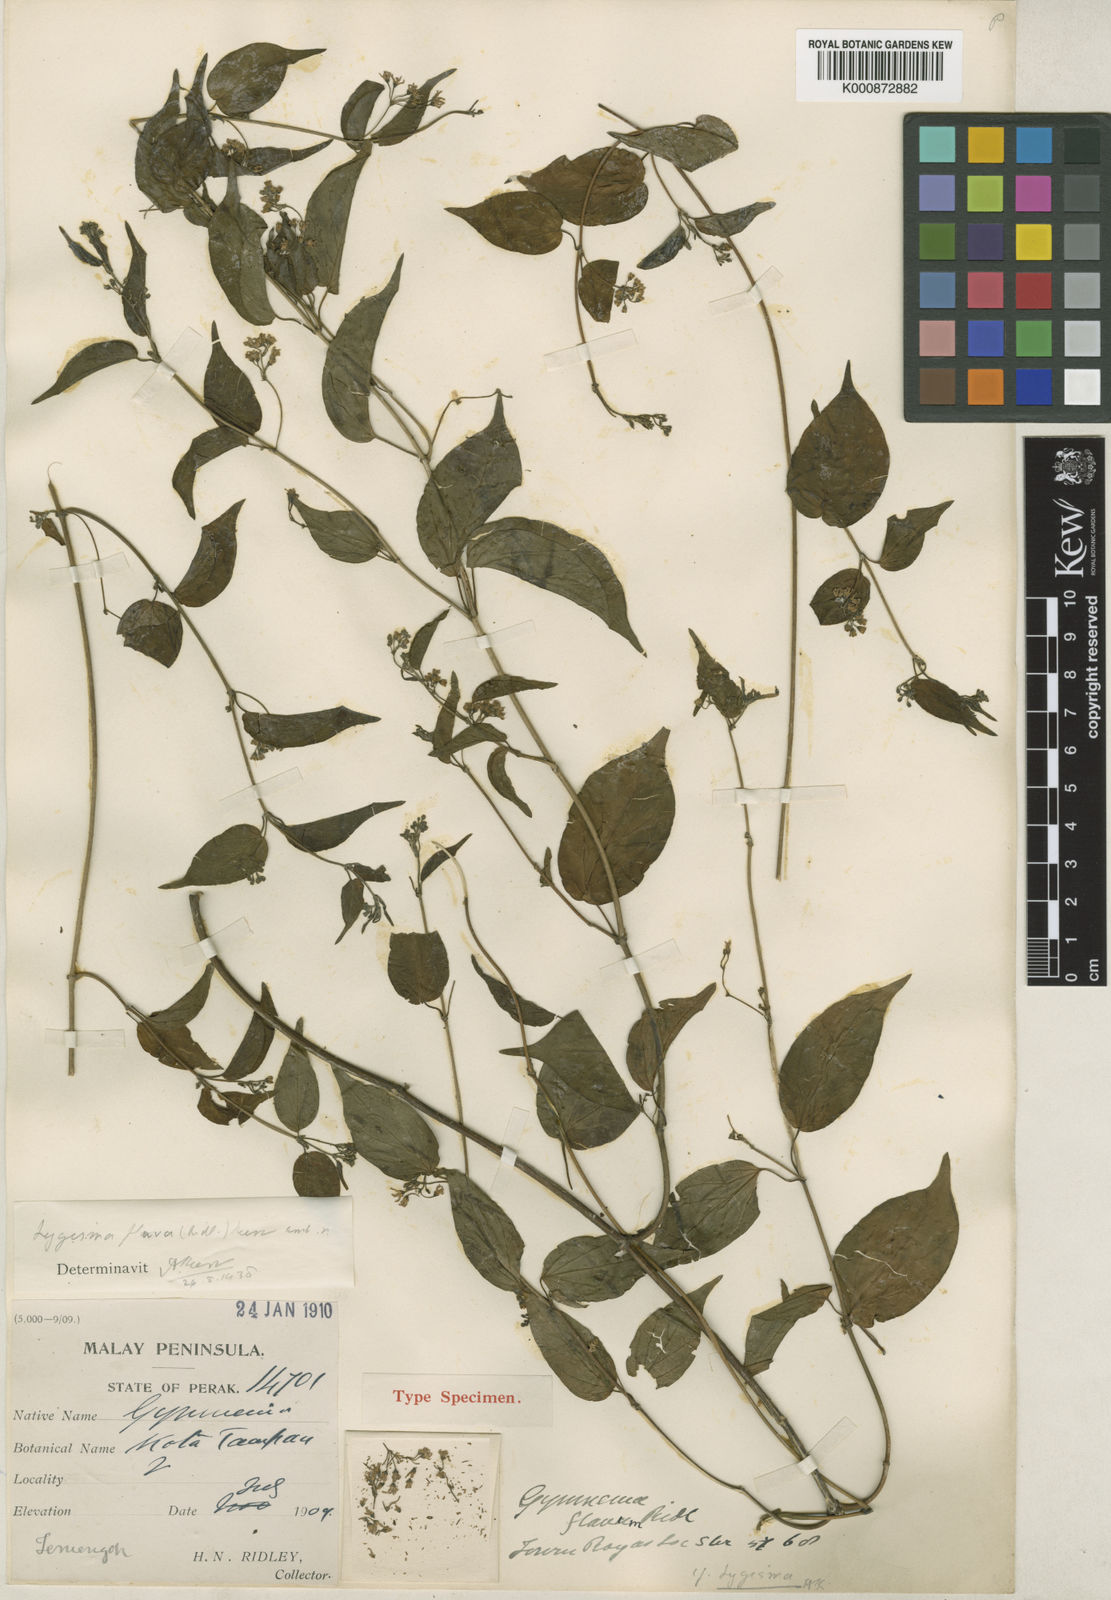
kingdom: Plantae
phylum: Tracheophyta
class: Magnoliopsida
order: Gentianales
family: Apocynaceae
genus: Lygisma
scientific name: Lygisma flavum
